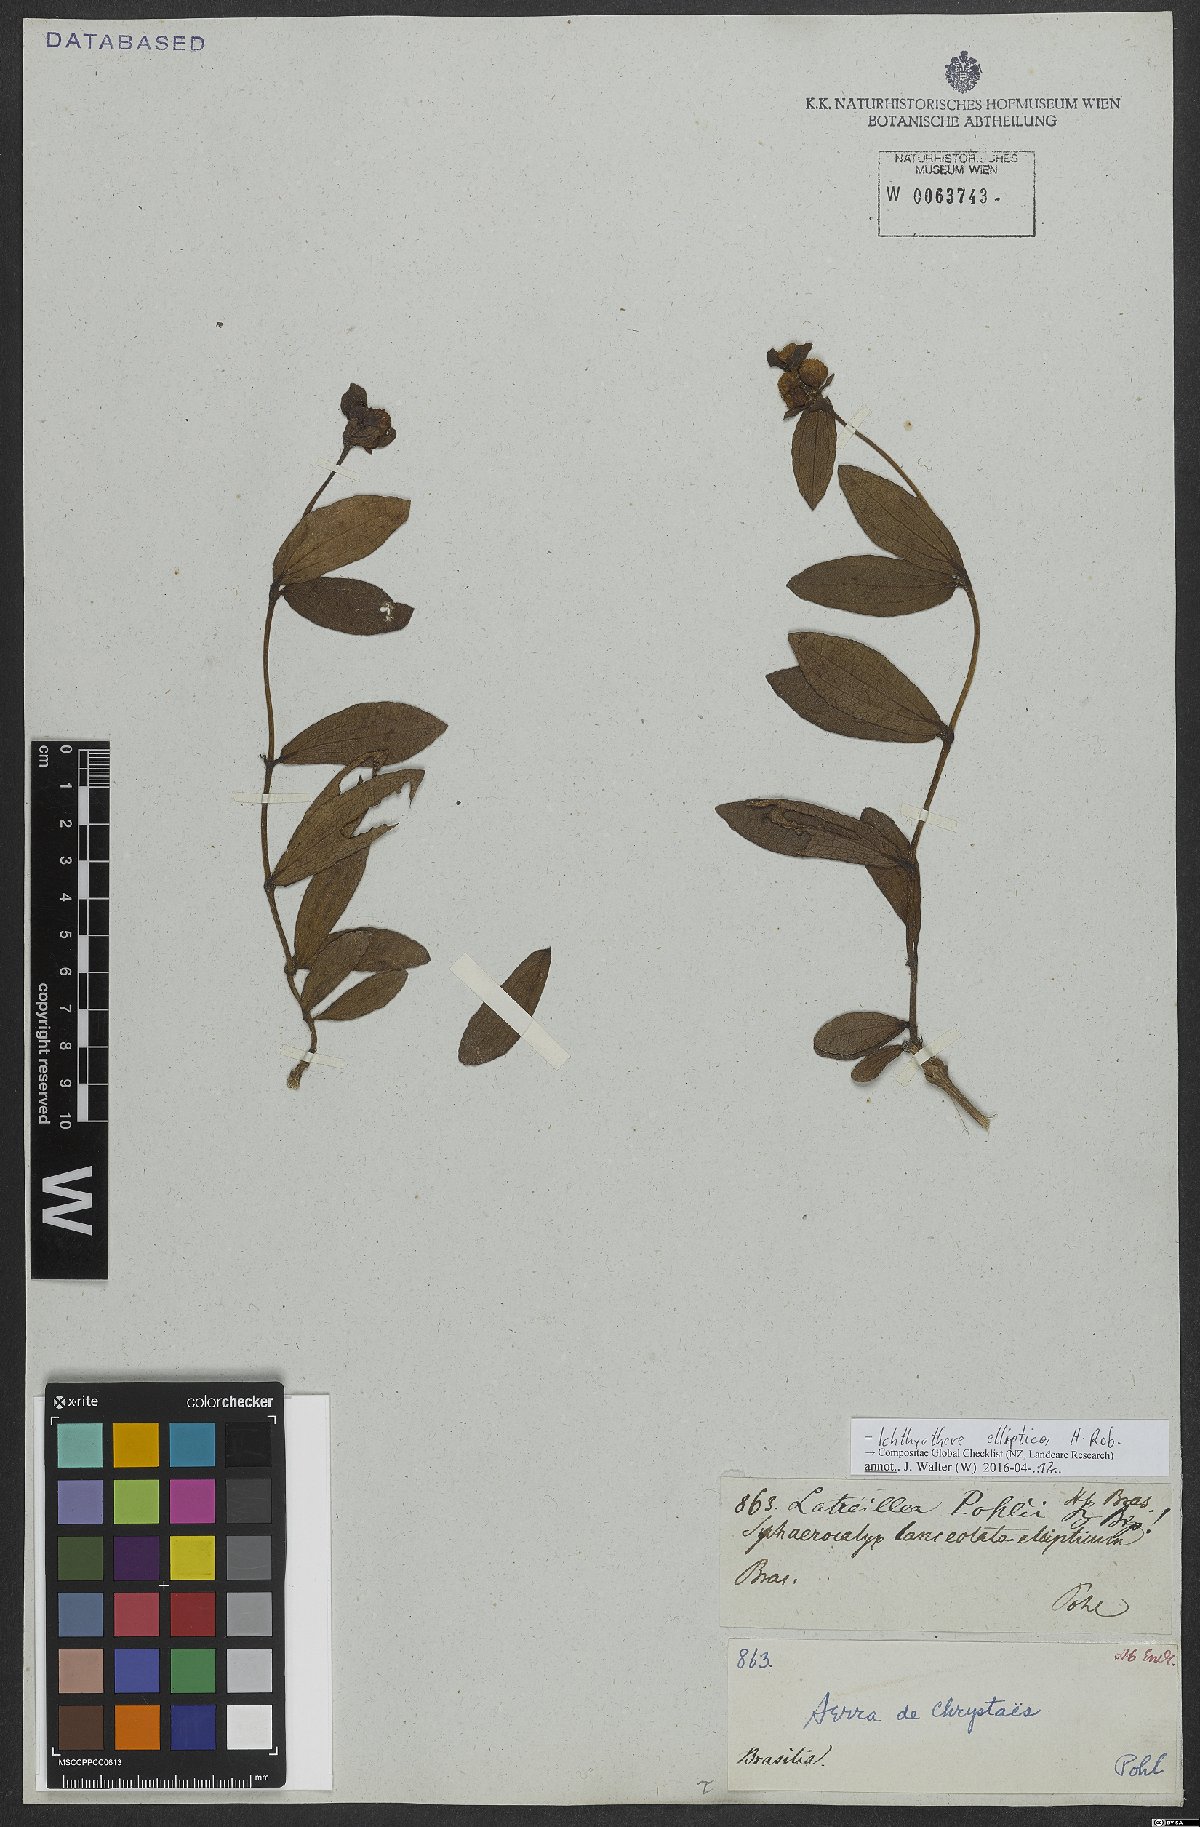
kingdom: Plantae
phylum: Tracheophyta
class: Magnoliopsida
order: Asterales
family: Asteraceae
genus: Ichthyothere
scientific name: Ichthyothere elliptica
